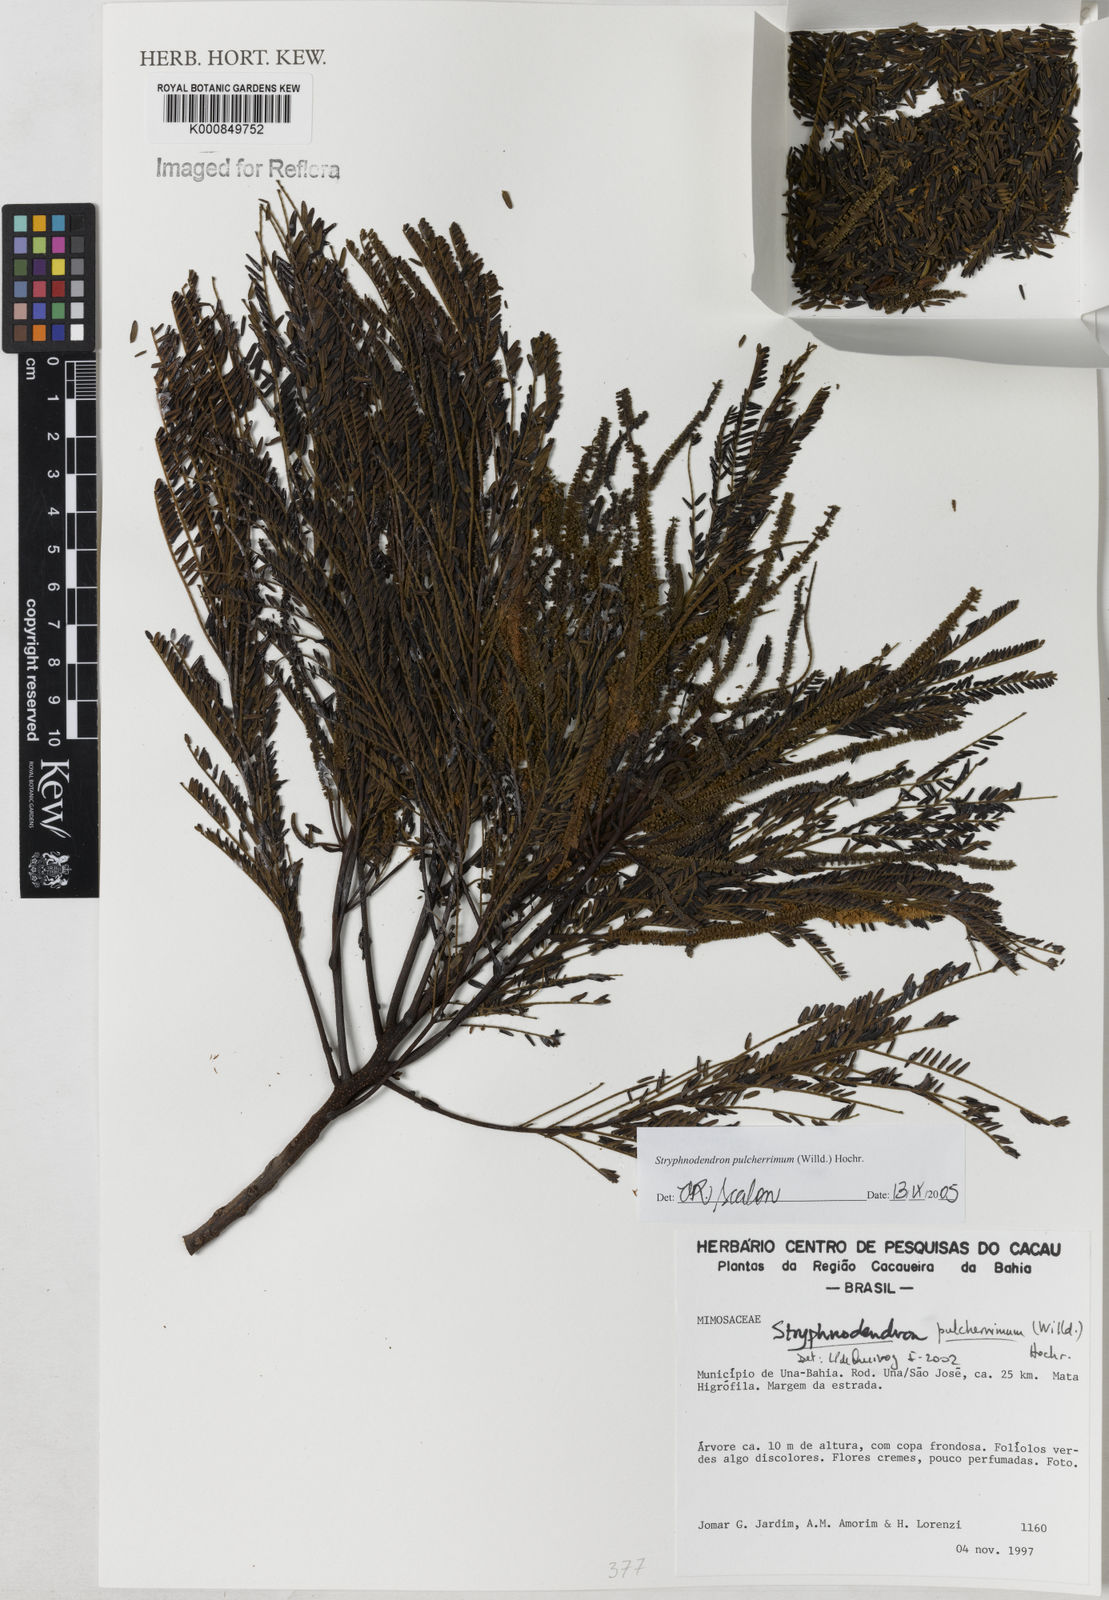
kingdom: Plantae
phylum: Tracheophyta
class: Magnoliopsida
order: Fabales
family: Fabaceae
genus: Stryphnodendron
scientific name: Stryphnodendron pulcherrimum
